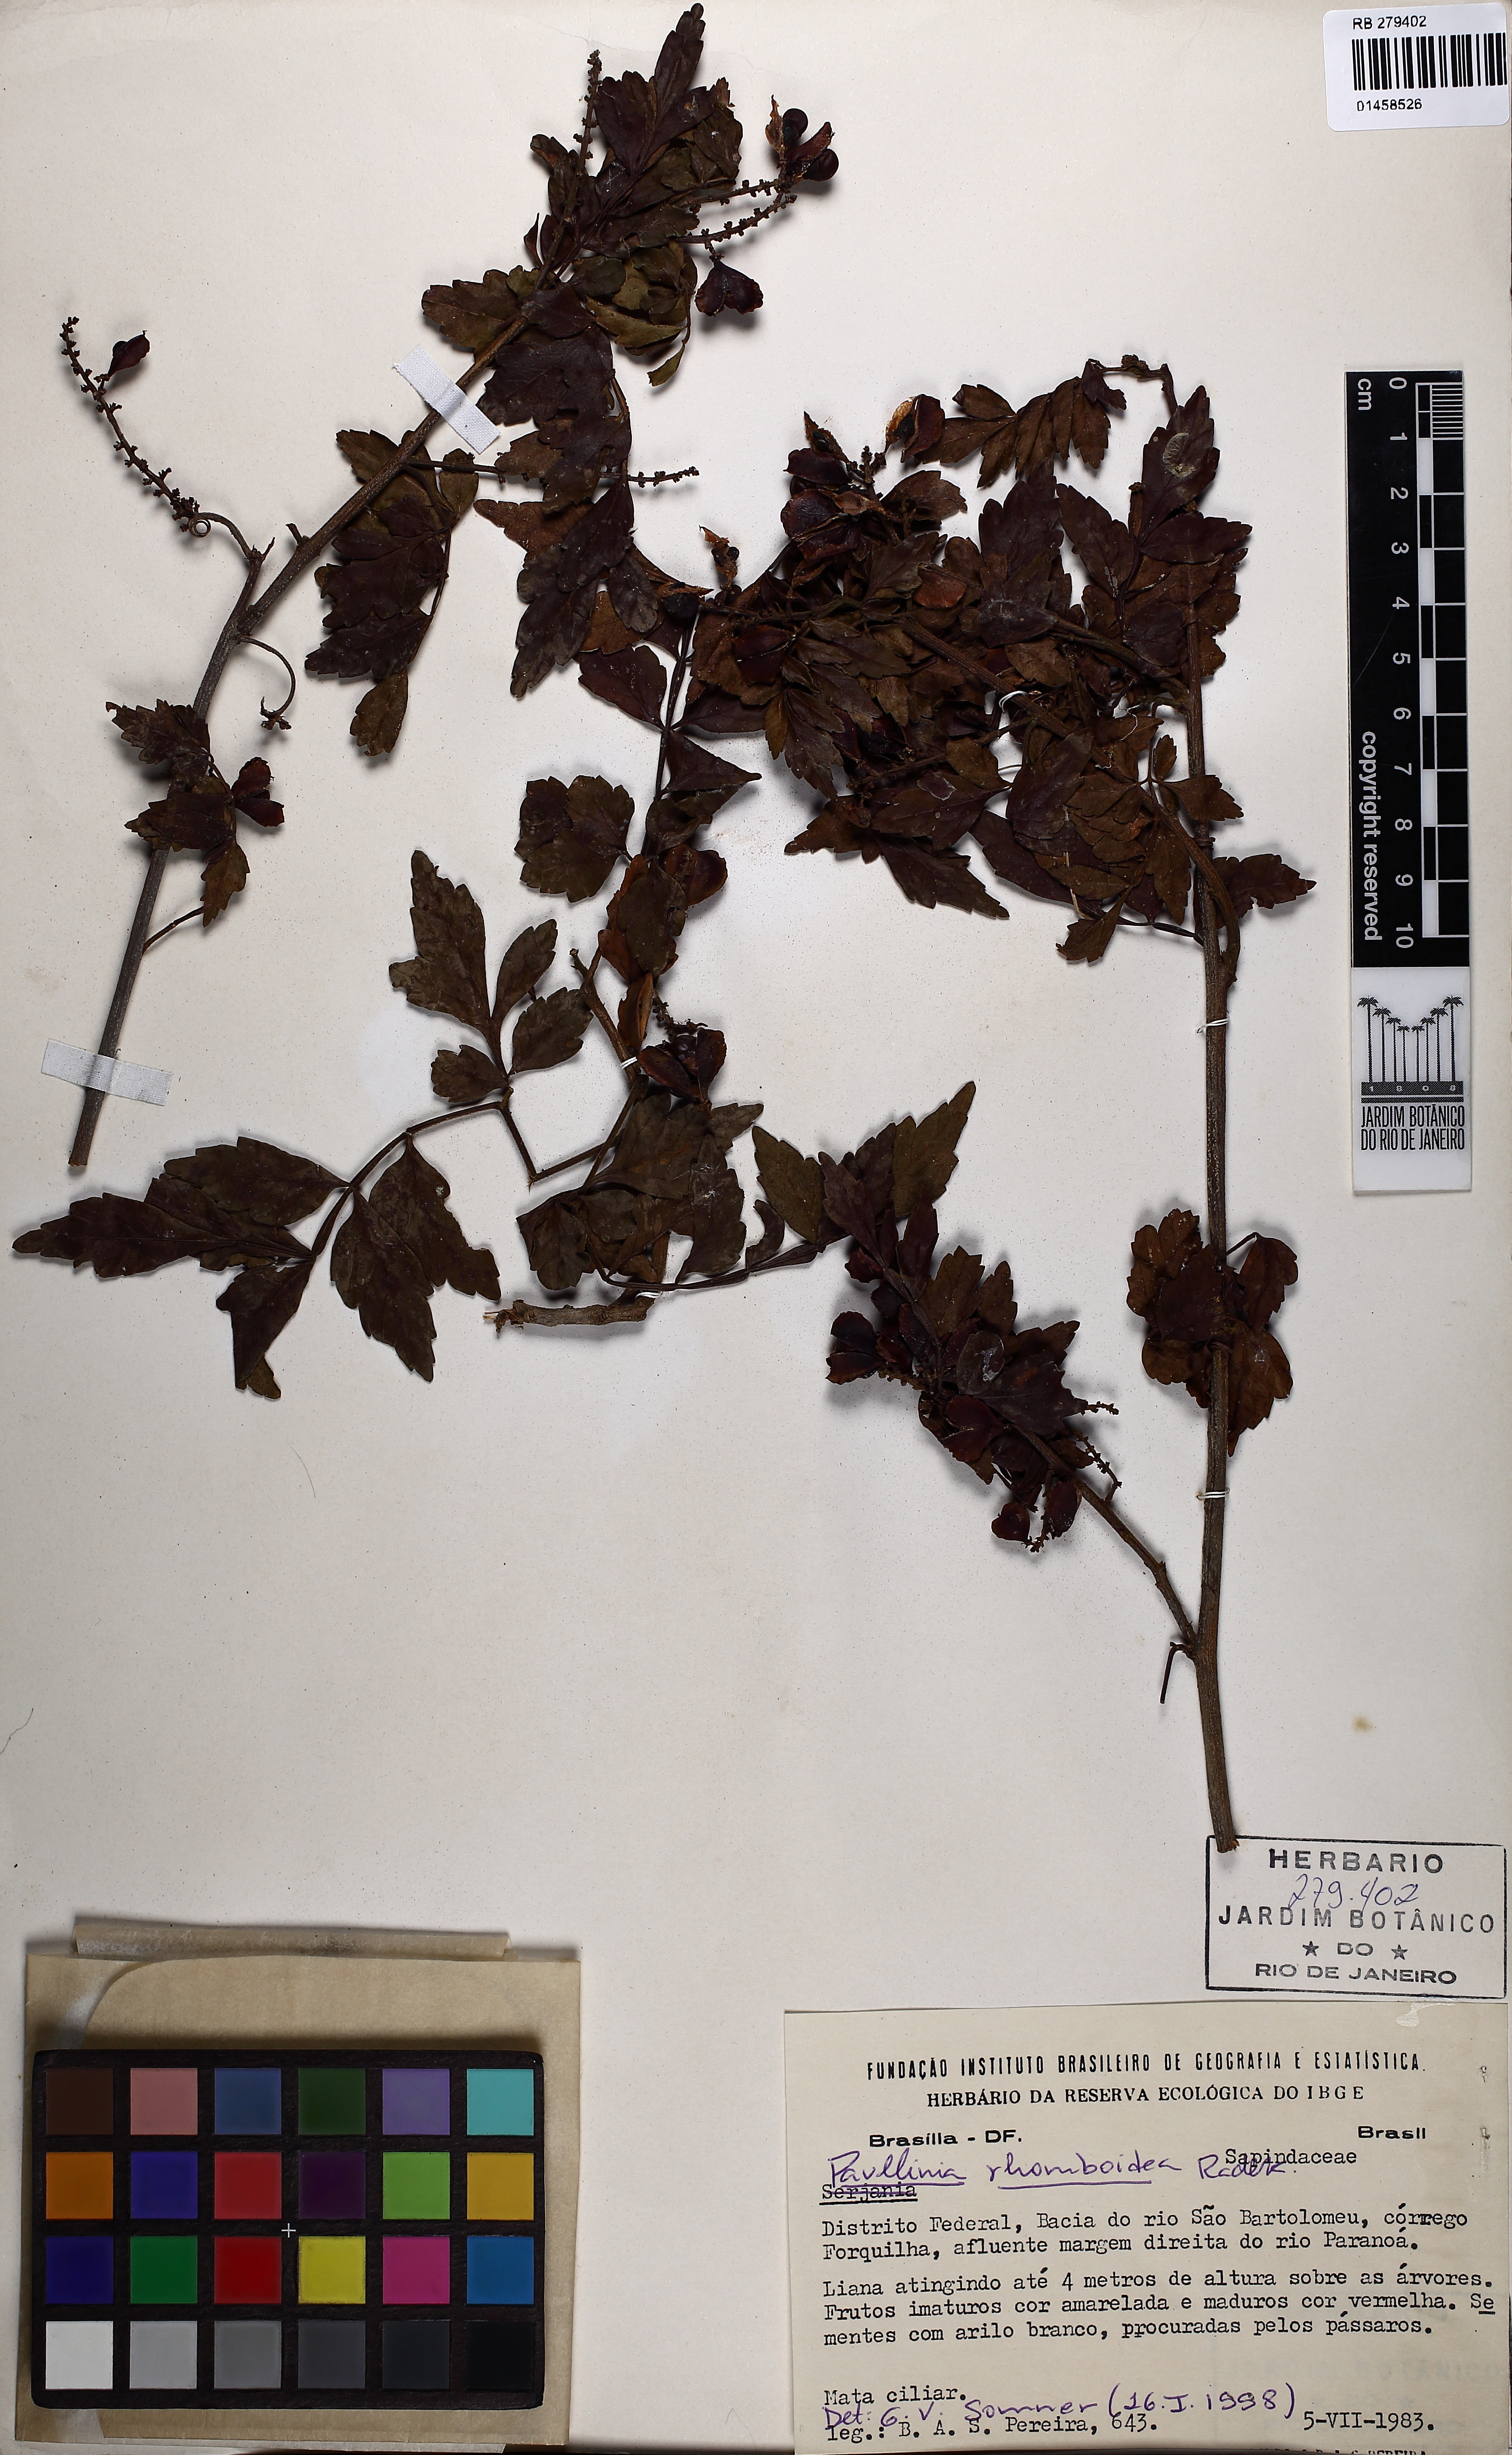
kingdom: Plantae
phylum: Tracheophyta
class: Magnoliopsida
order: Sapindales
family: Sapindaceae
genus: Paullinia
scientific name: Paullinia rhomboidea
